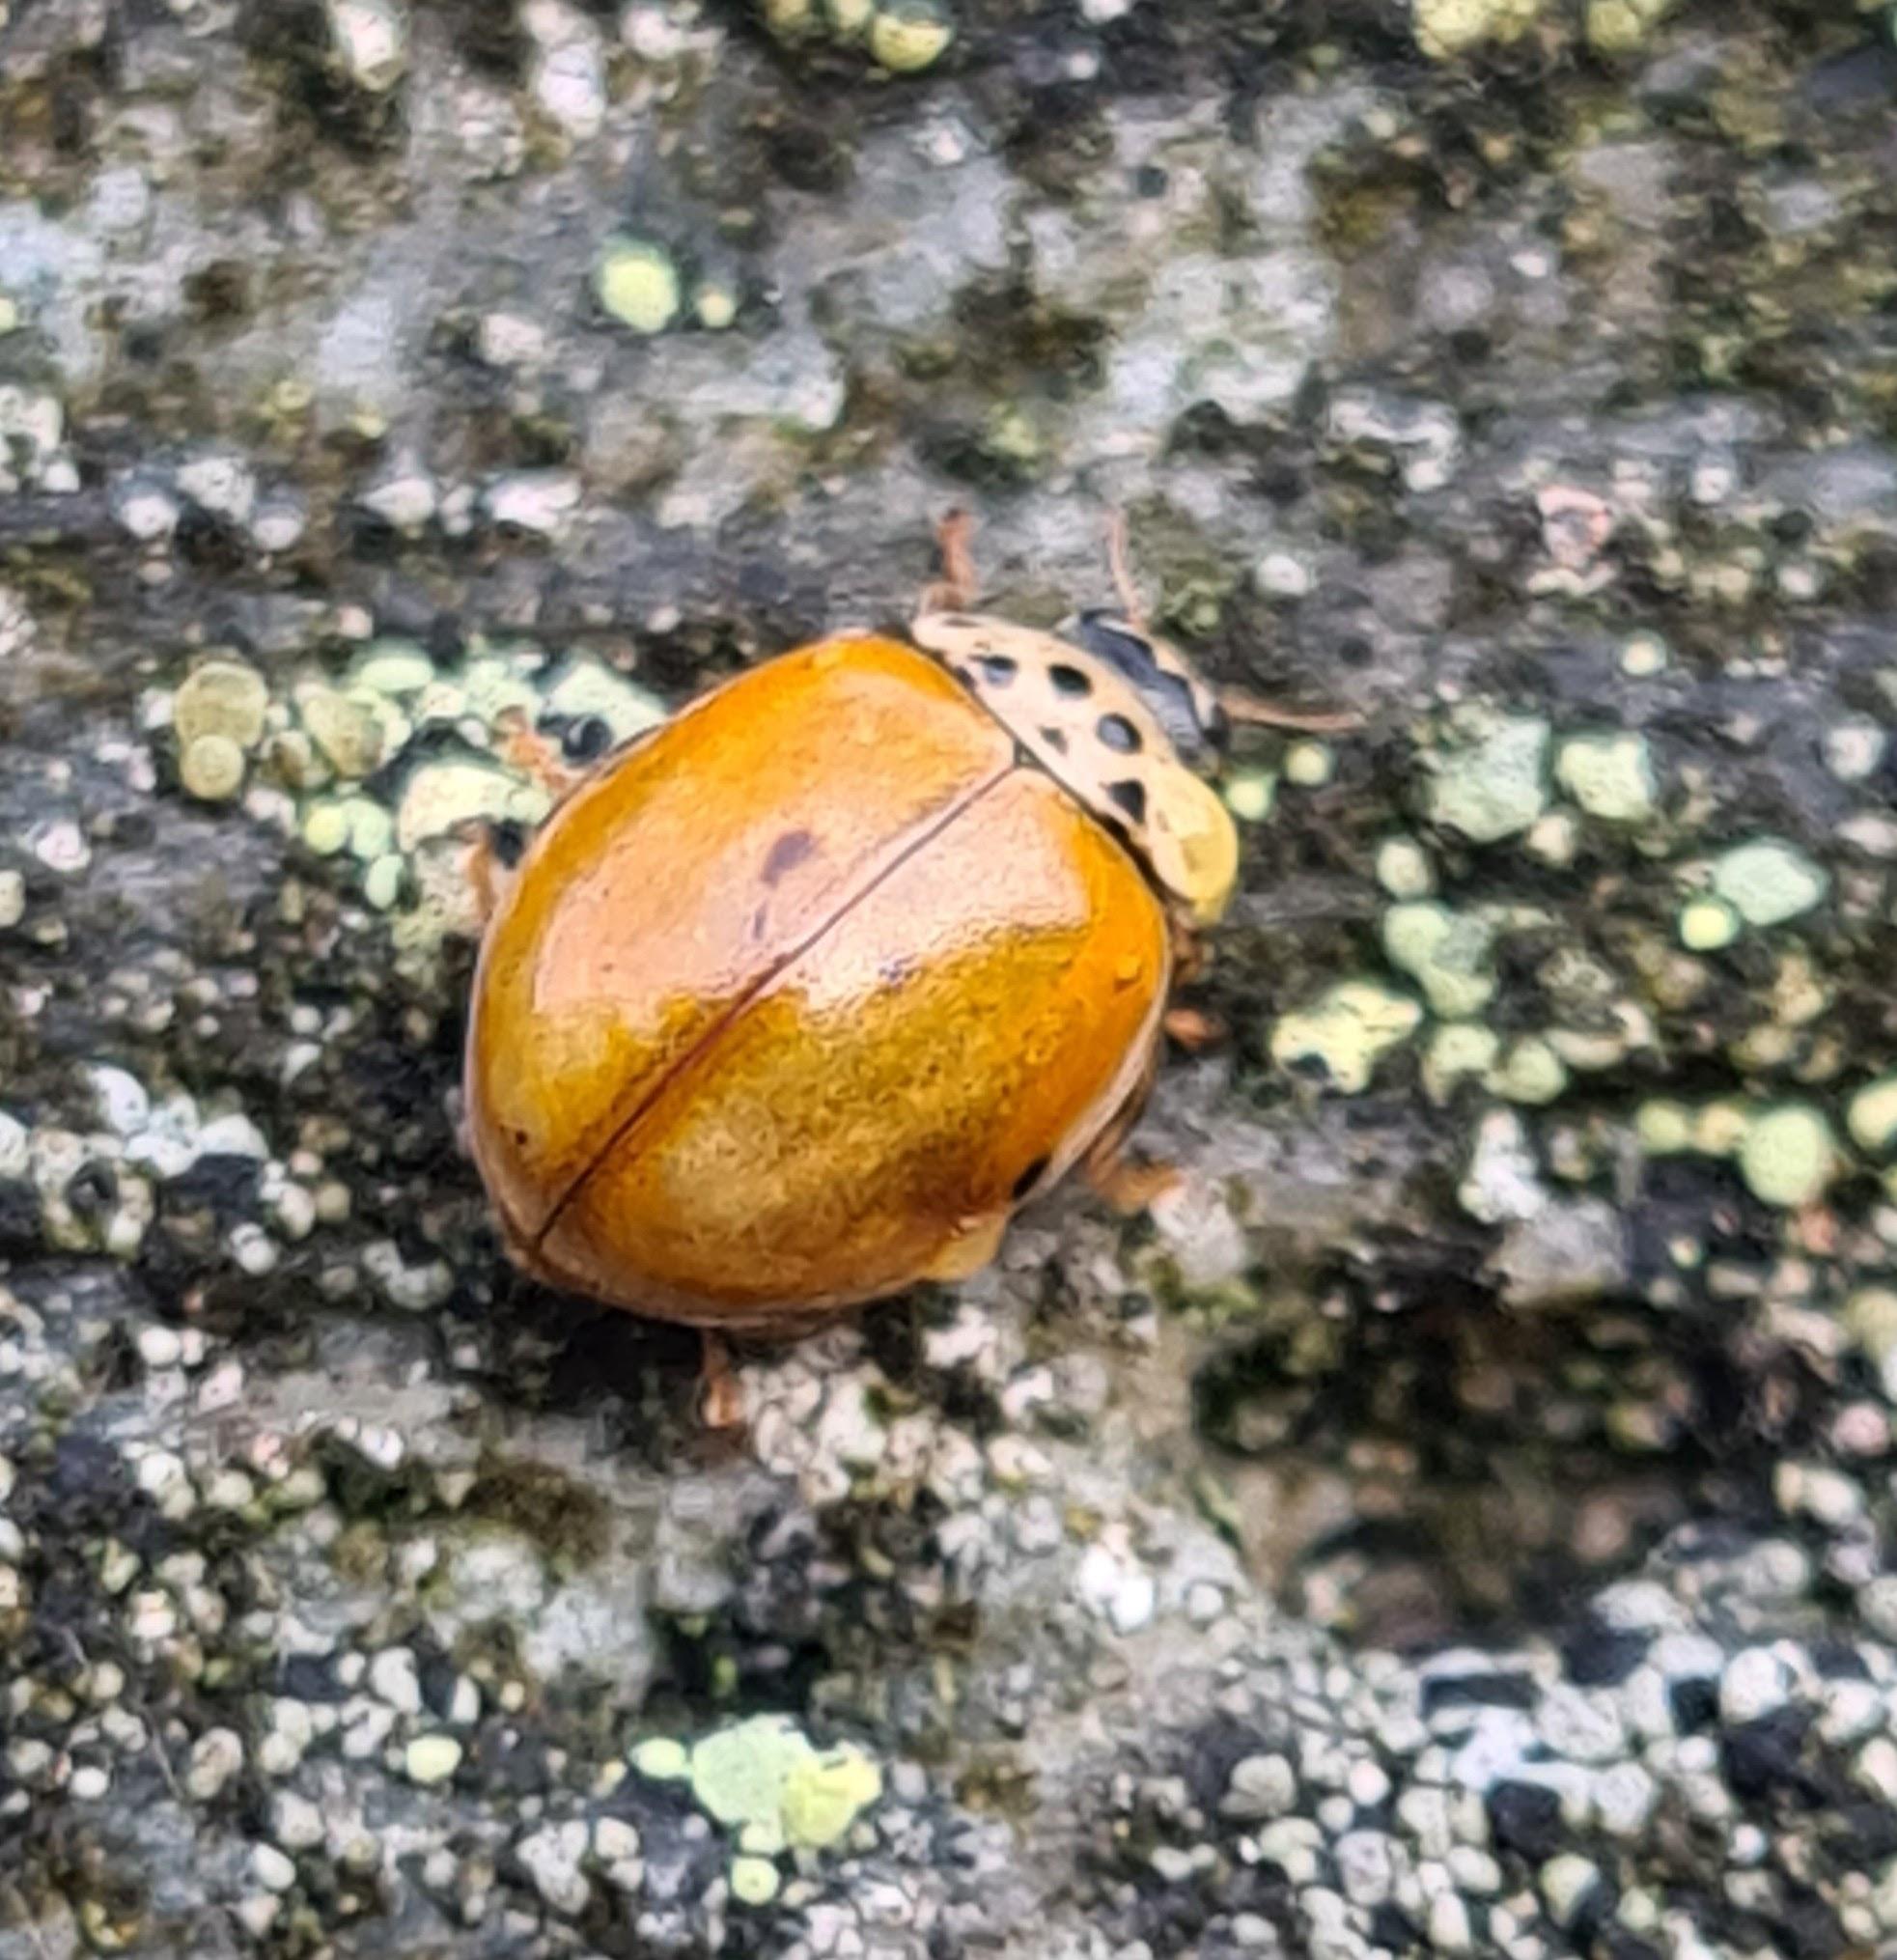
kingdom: Animalia
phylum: Arthropoda
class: Insecta
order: Coleoptera
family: Coccinellidae
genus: Adalia
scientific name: Adalia decempunctata
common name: Tiplettet mariehøne
